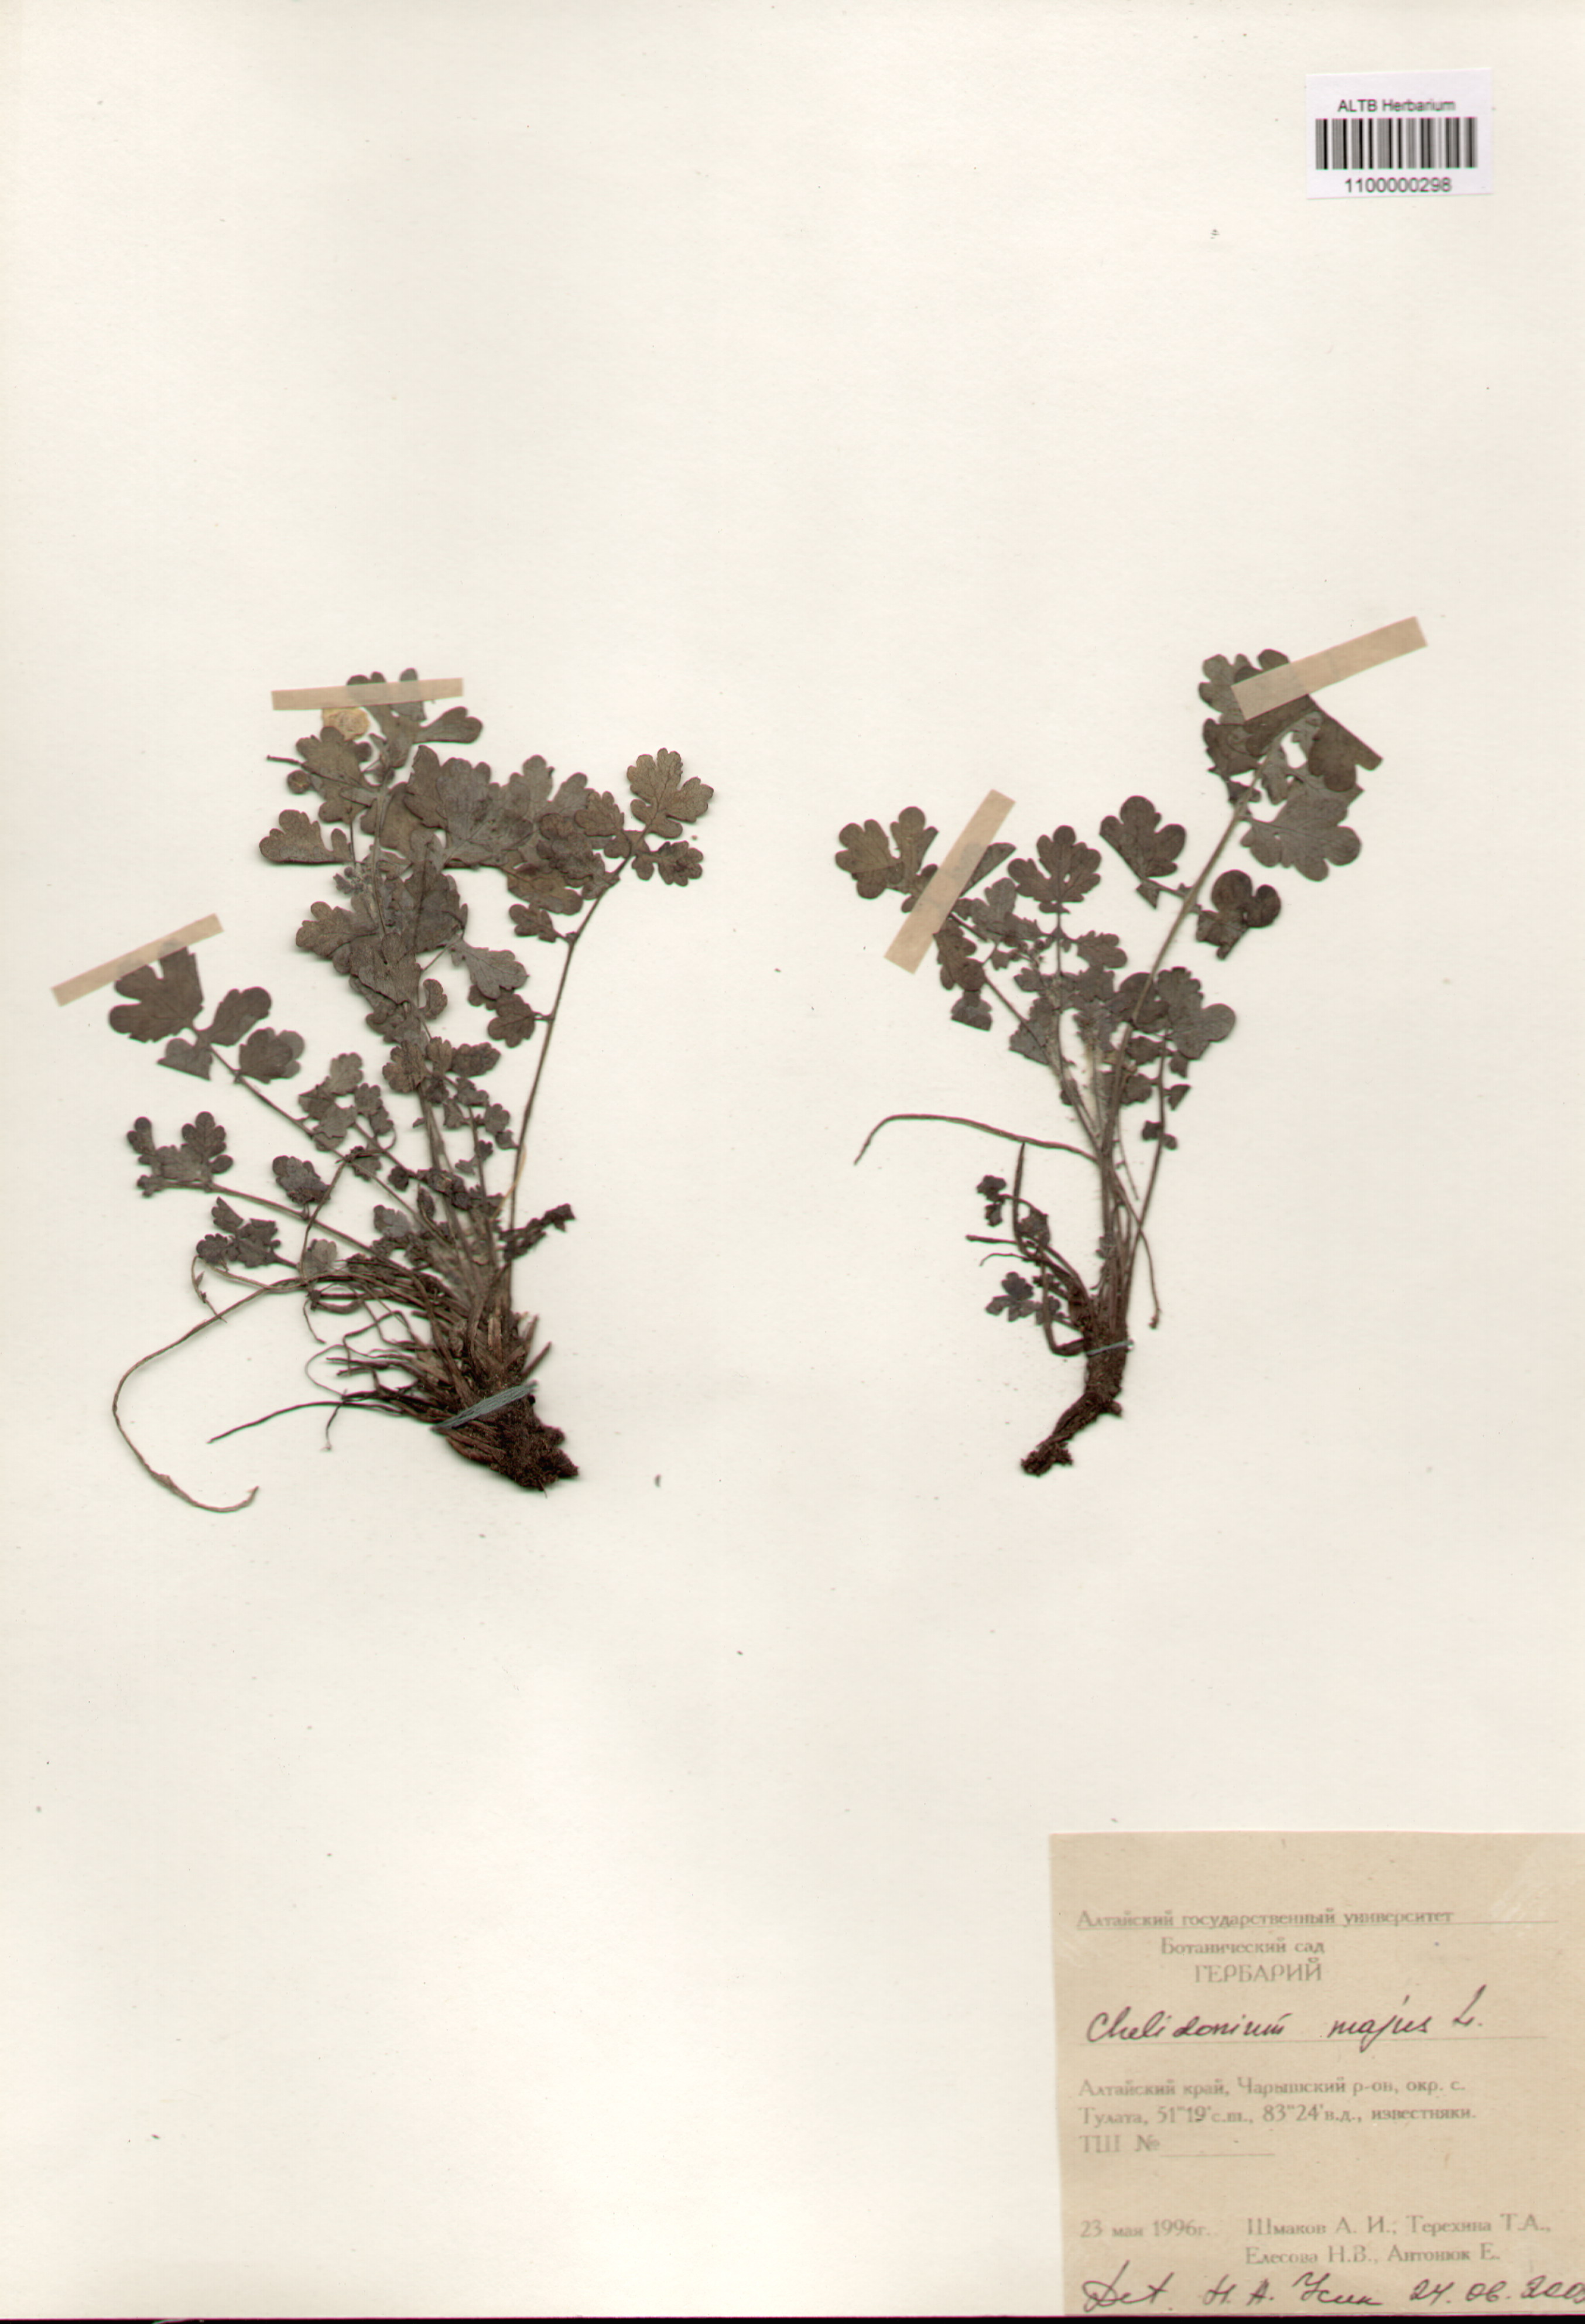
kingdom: Plantae
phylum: Tracheophyta
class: Magnoliopsida
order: Ranunculales
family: Papaveraceae
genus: Chelidonium
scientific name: Chelidonium majus
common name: Greater celandine
